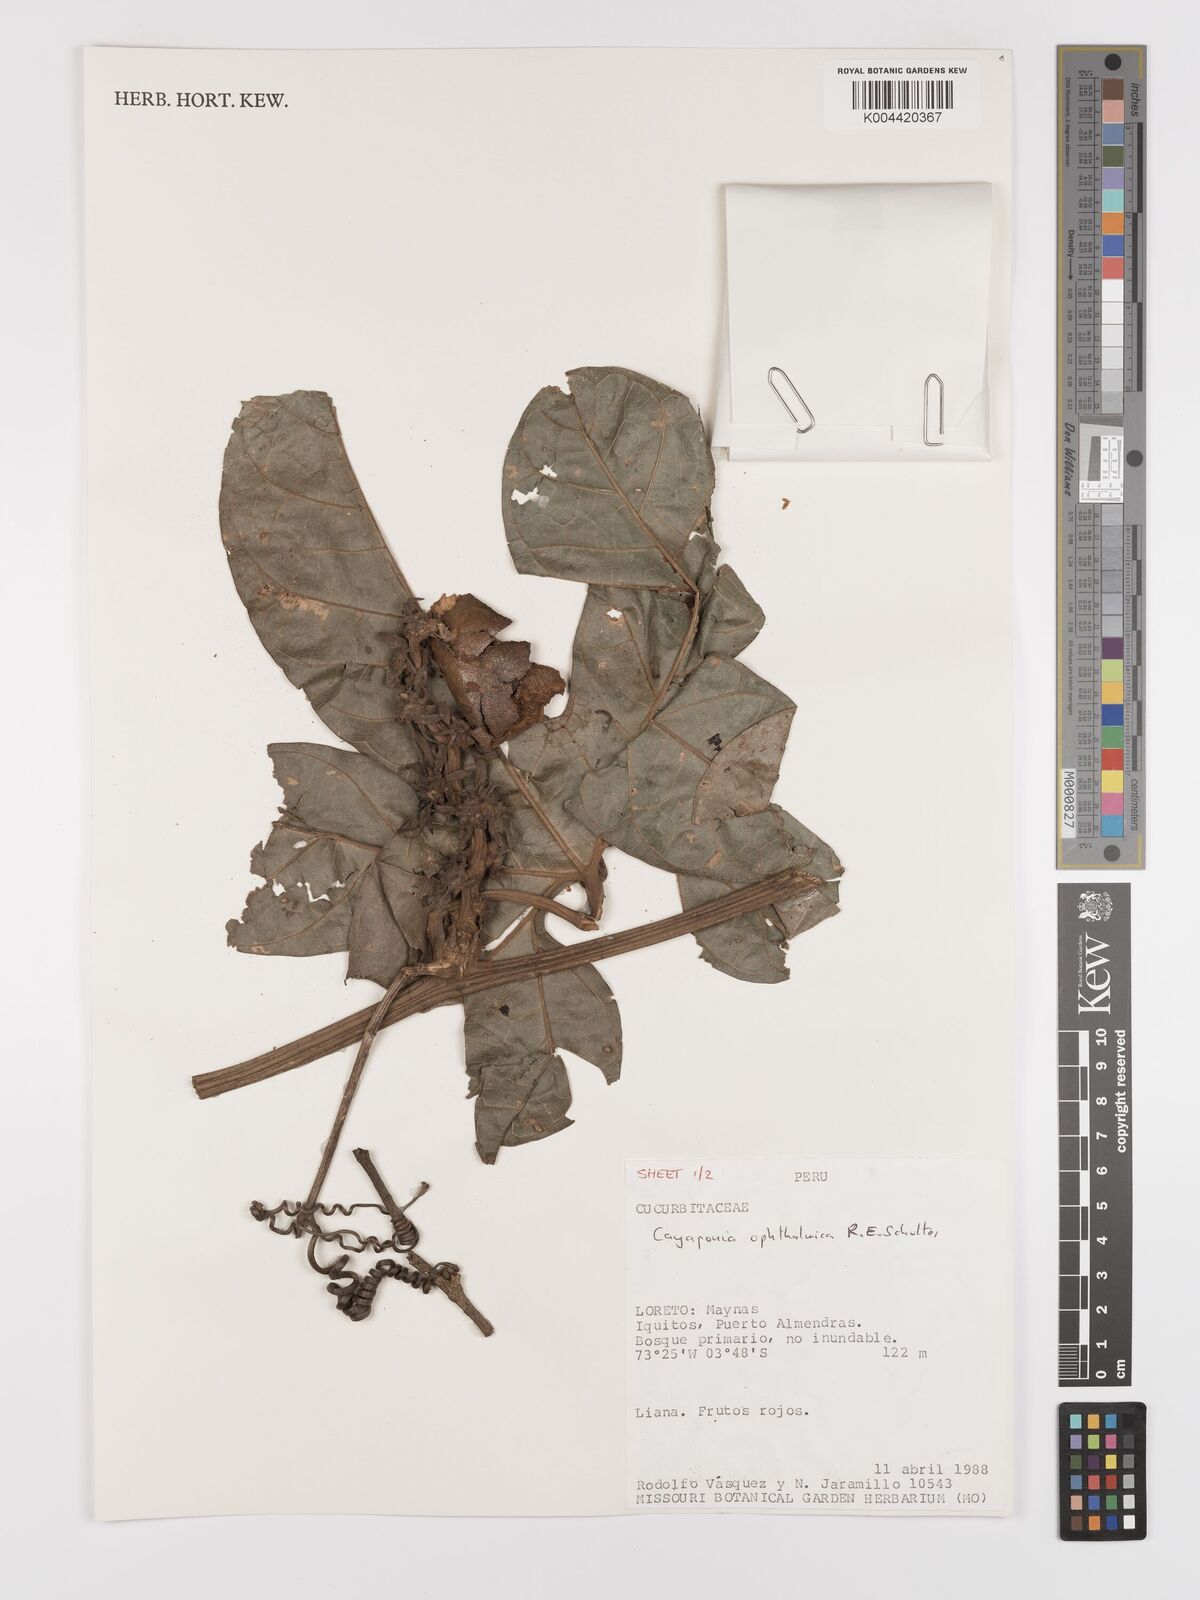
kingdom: Plantae
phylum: Tracheophyta
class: Magnoliopsida
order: Cucurbitales
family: Cucurbitaceae
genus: Cayaponia
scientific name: Cayaponia ophthalmica
